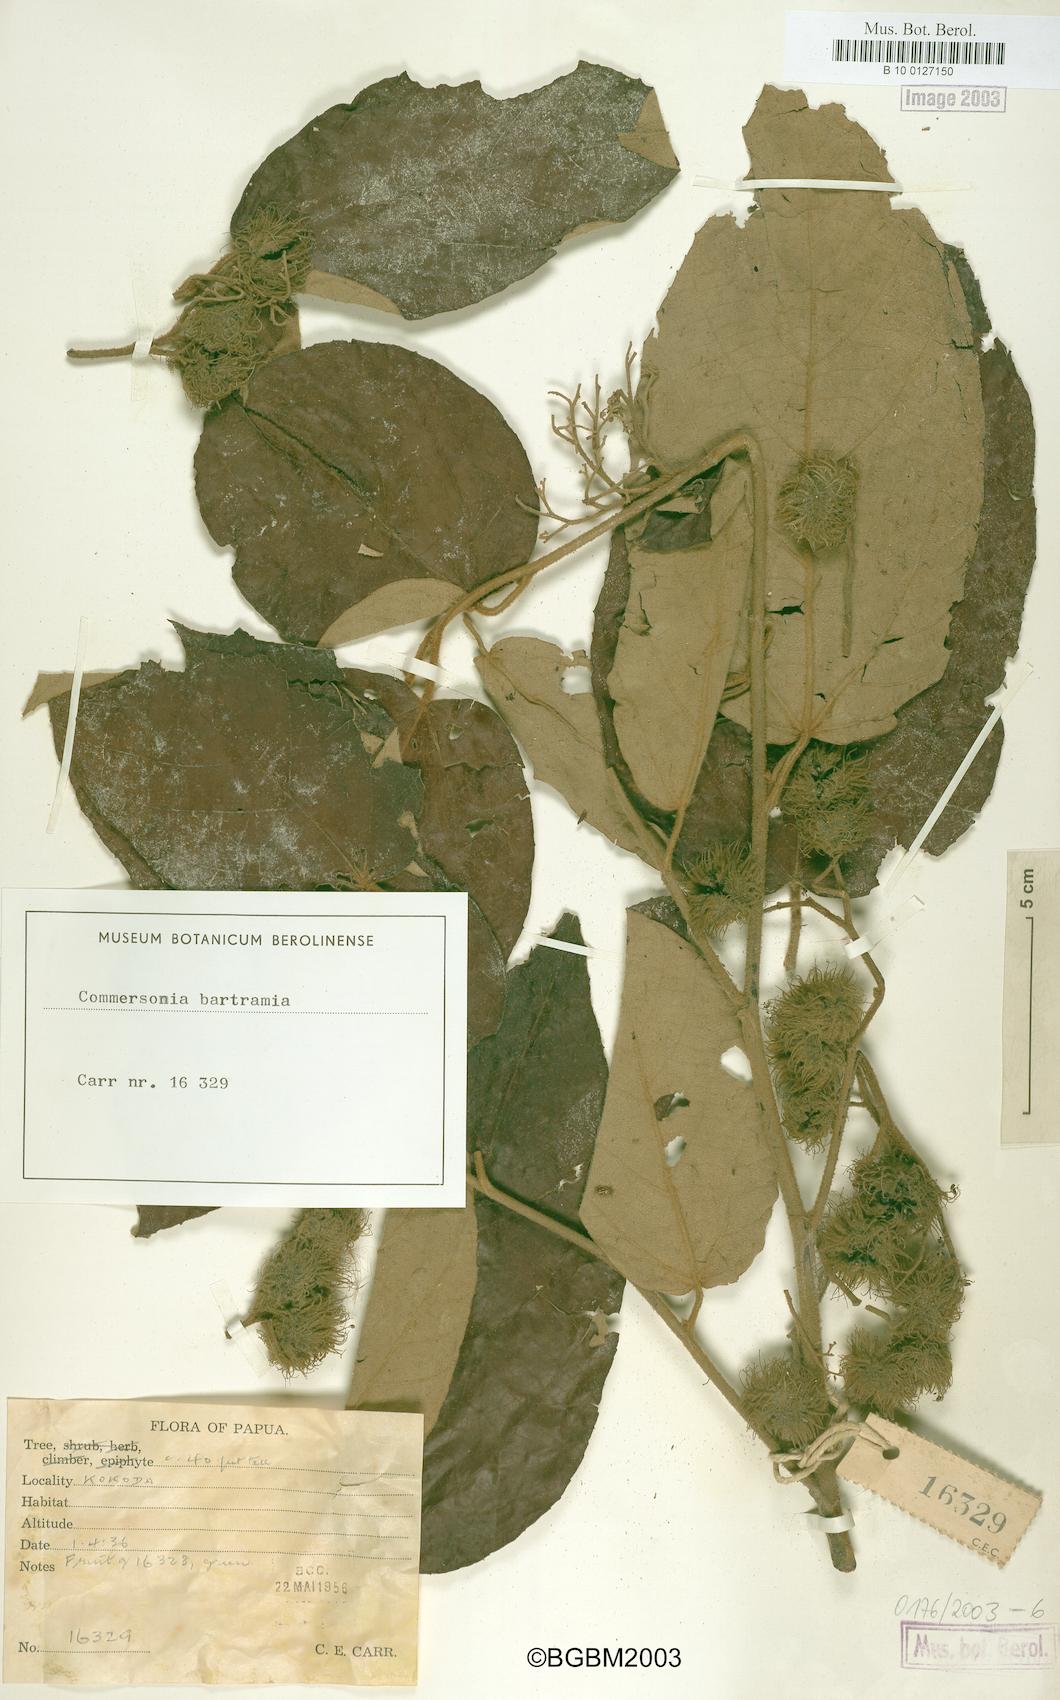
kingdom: Plantae
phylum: Tracheophyta
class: Magnoliopsida
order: Malvales
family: Malvaceae
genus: Commersonia
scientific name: Commersonia bartramia
